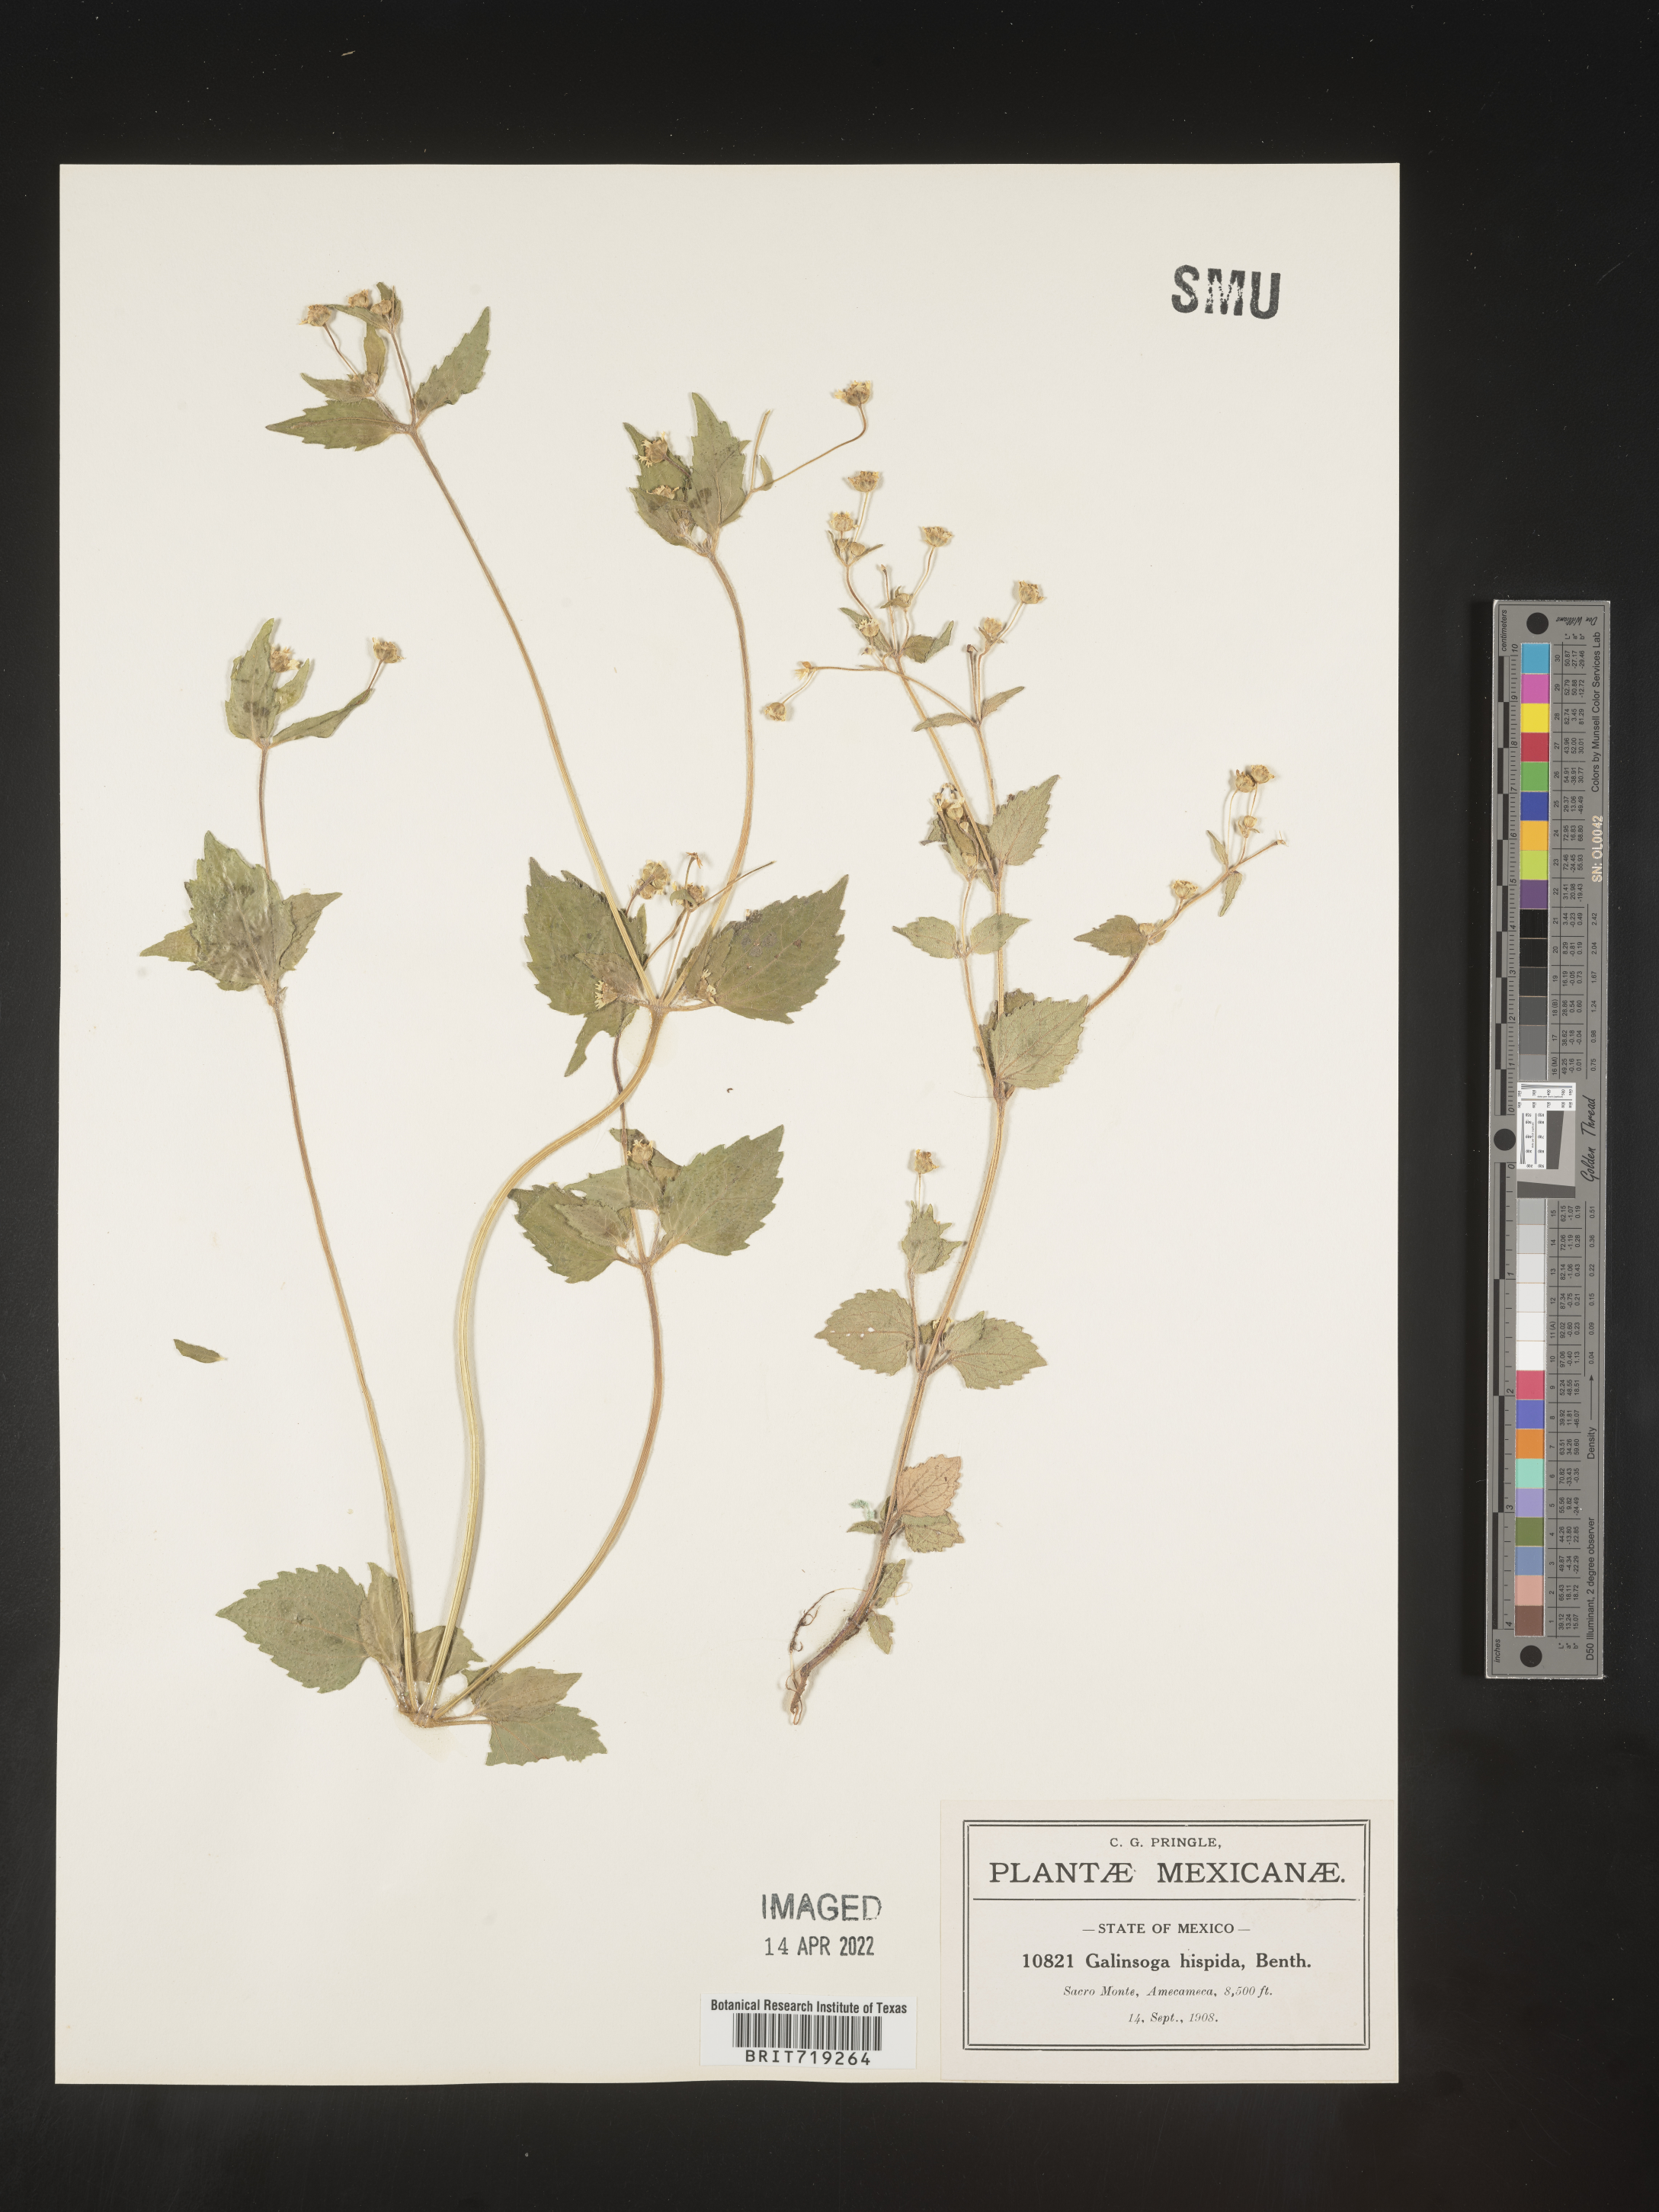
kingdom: Plantae
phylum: Tracheophyta
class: Magnoliopsida
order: Asterales
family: Asteraceae
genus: Galinsoga
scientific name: Galinsoga
